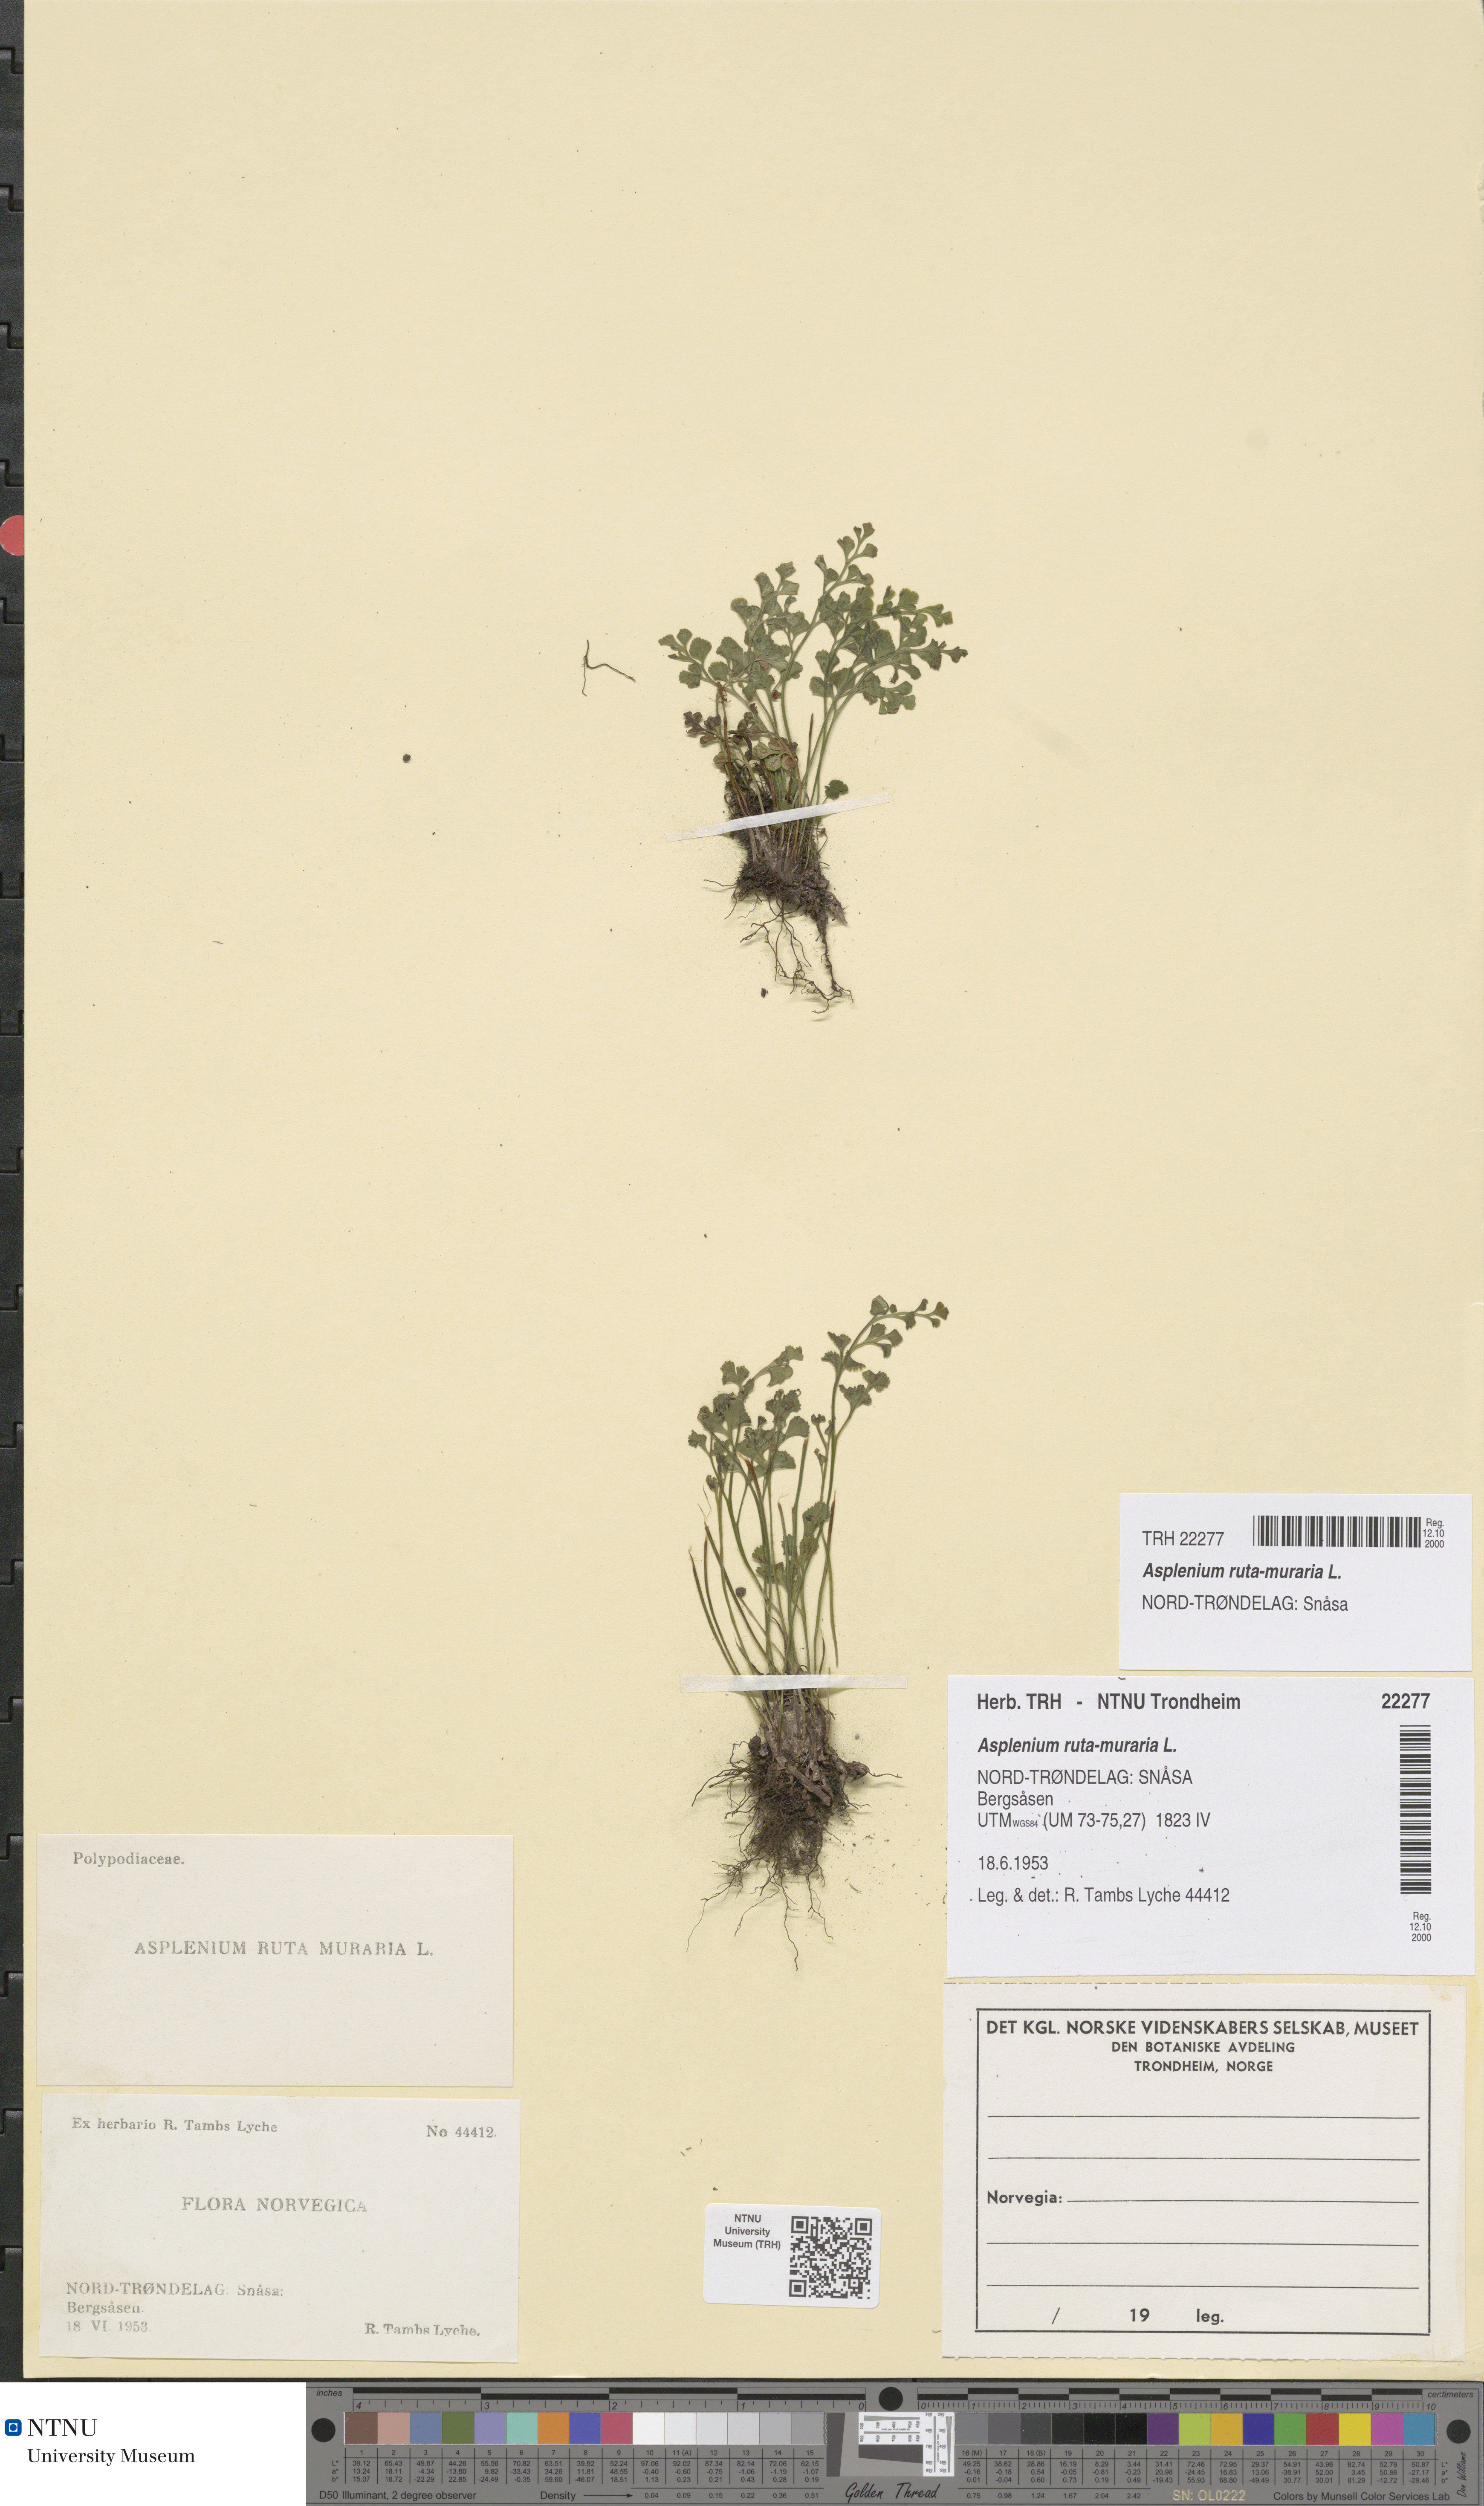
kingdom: Plantae
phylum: Tracheophyta
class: Polypodiopsida
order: Polypodiales
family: Aspleniaceae
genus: Asplenium
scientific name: Asplenium ruta-muraria
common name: Wall-rue
